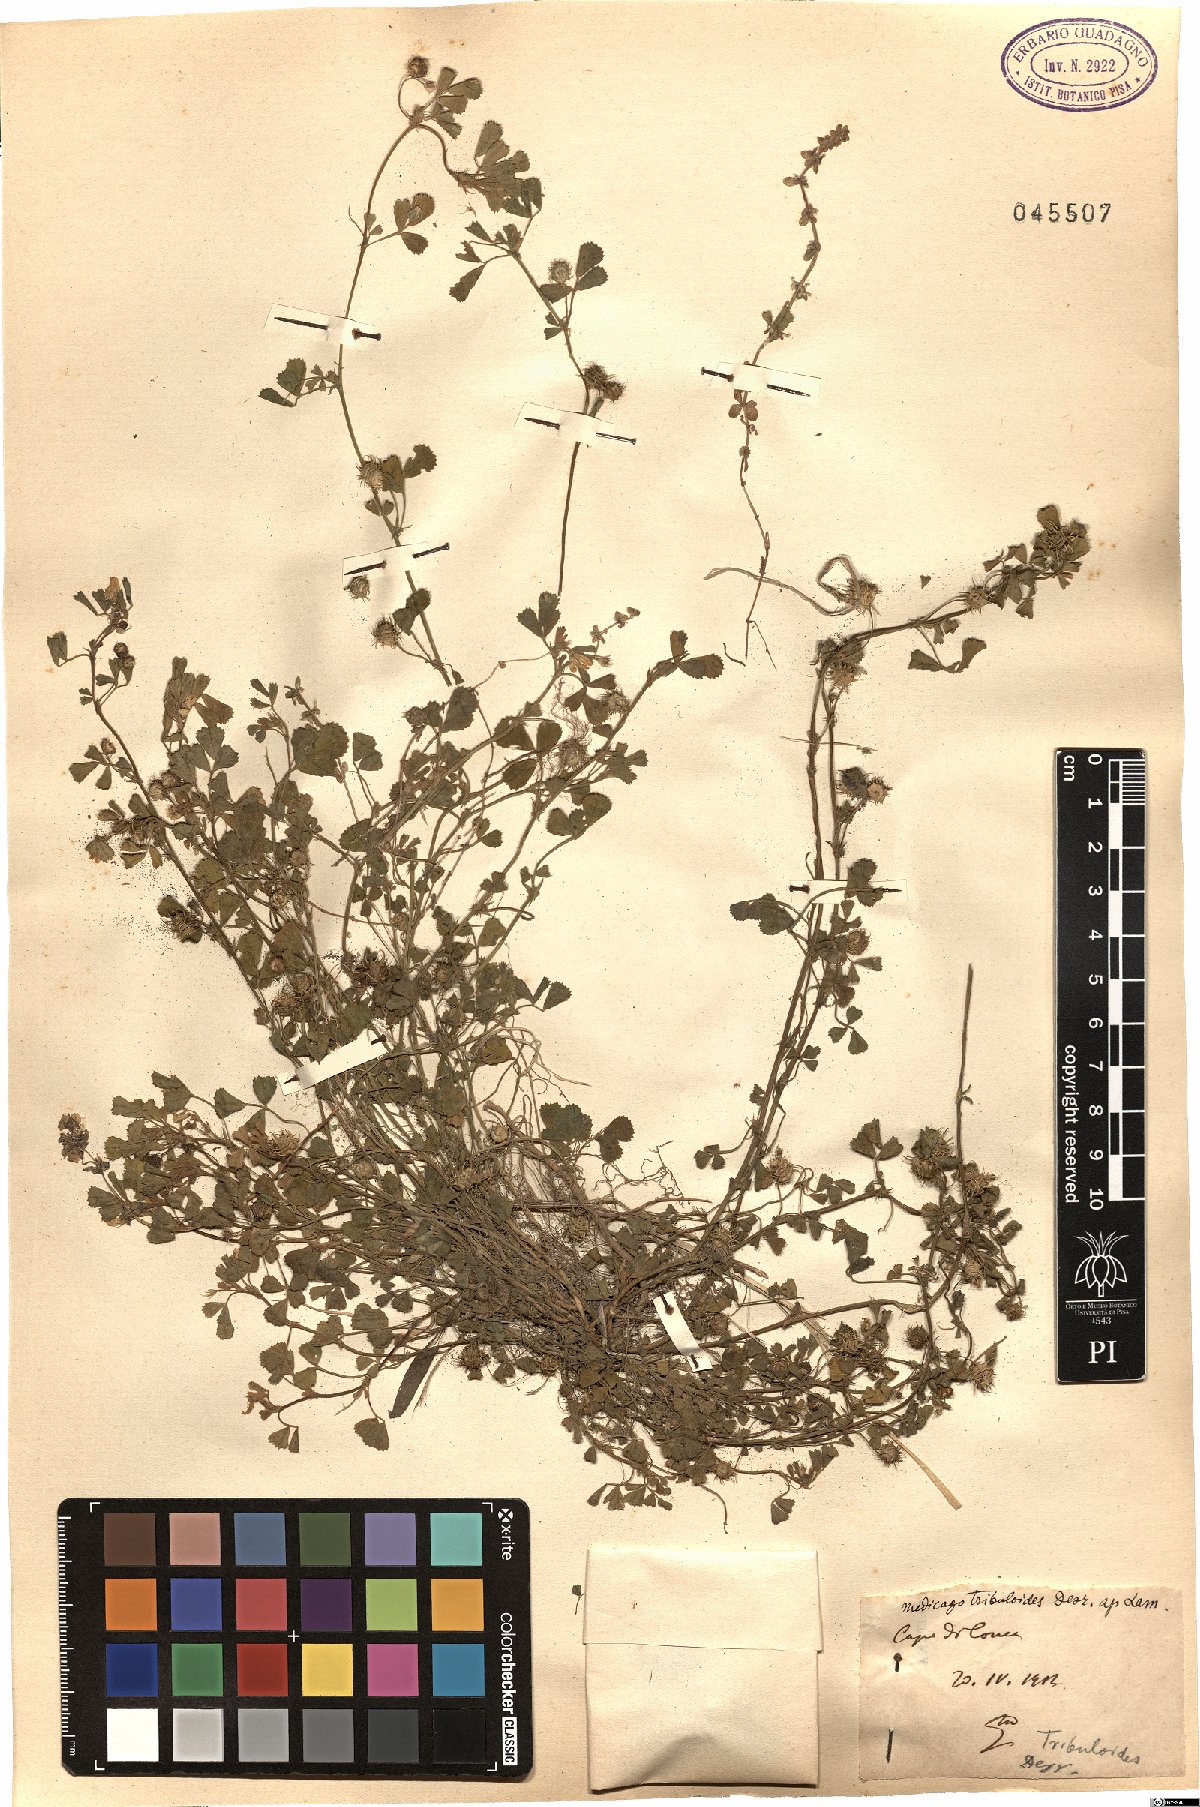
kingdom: Plantae
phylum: Tracheophyta
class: Magnoliopsida
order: Fabales
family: Fabaceae
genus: Medicago
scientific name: Medicago truncatula
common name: Strong-spined medick
